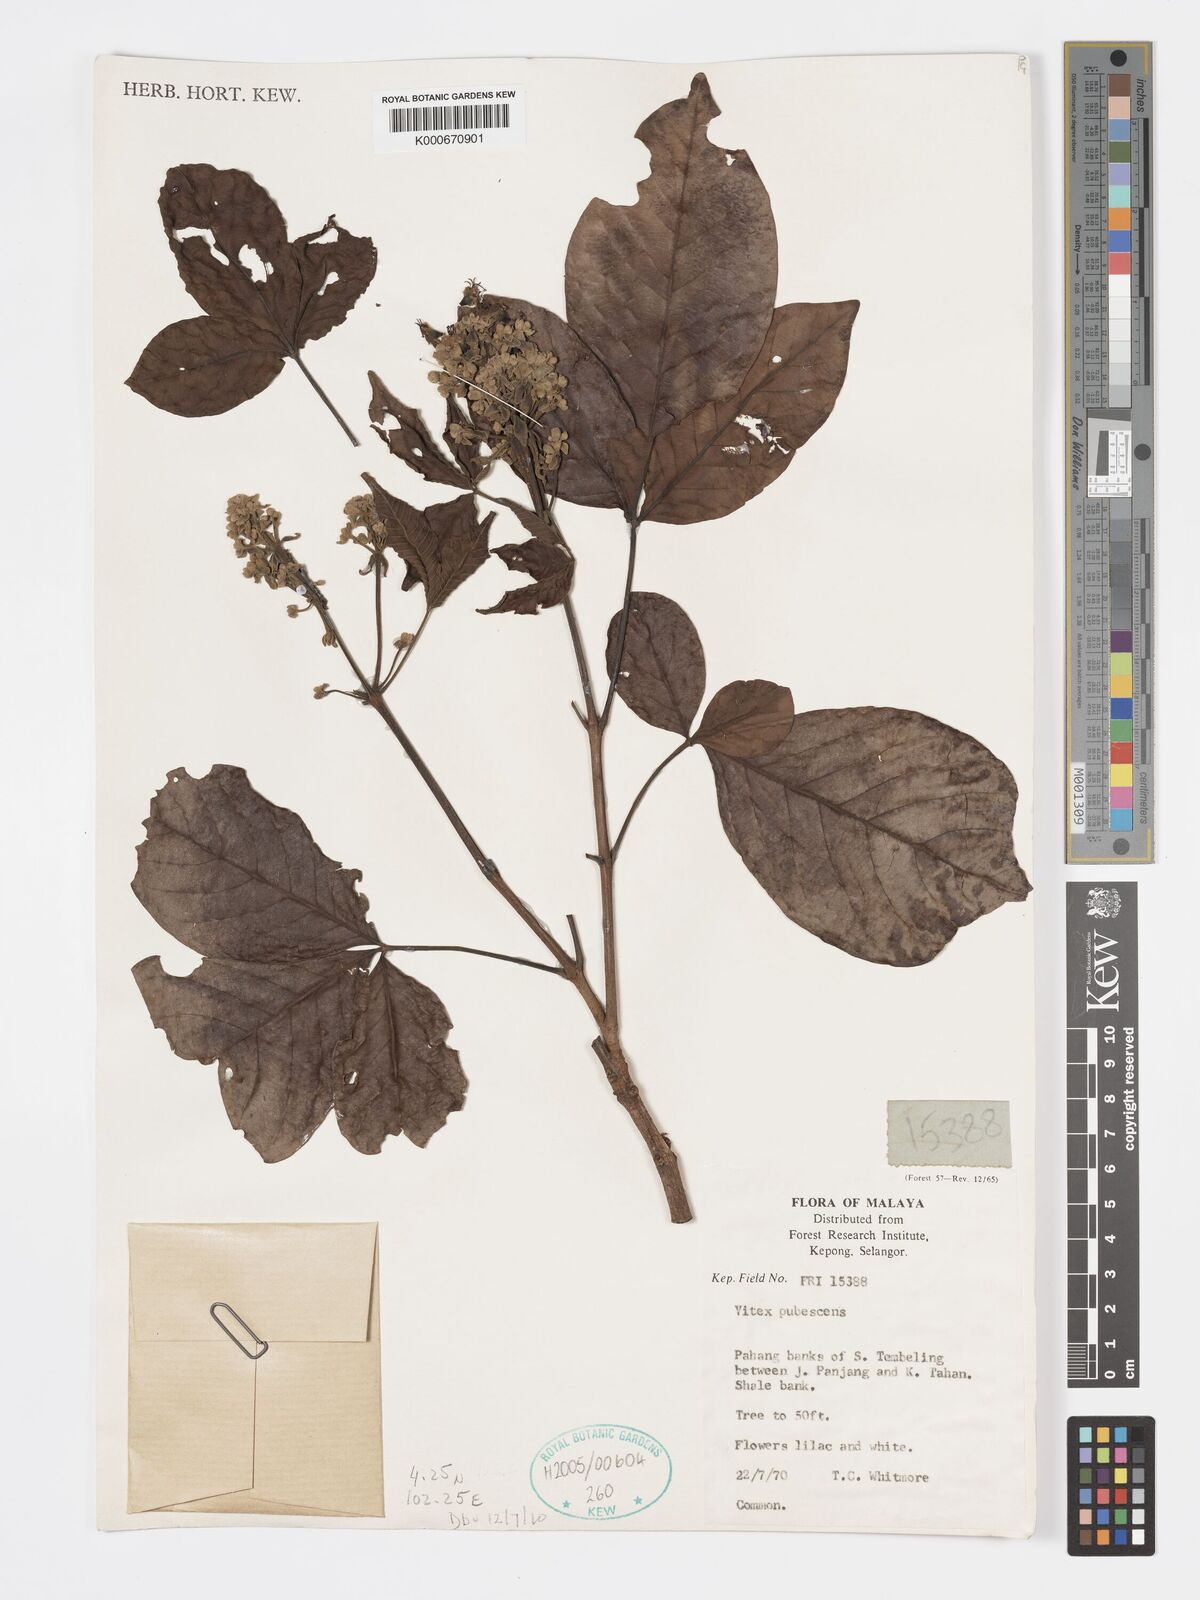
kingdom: Plantae
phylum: Tracheophyta
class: Magnoliopsida
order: Lamiales
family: Lamiaceae
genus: Vitex
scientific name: Vitex pinnata
